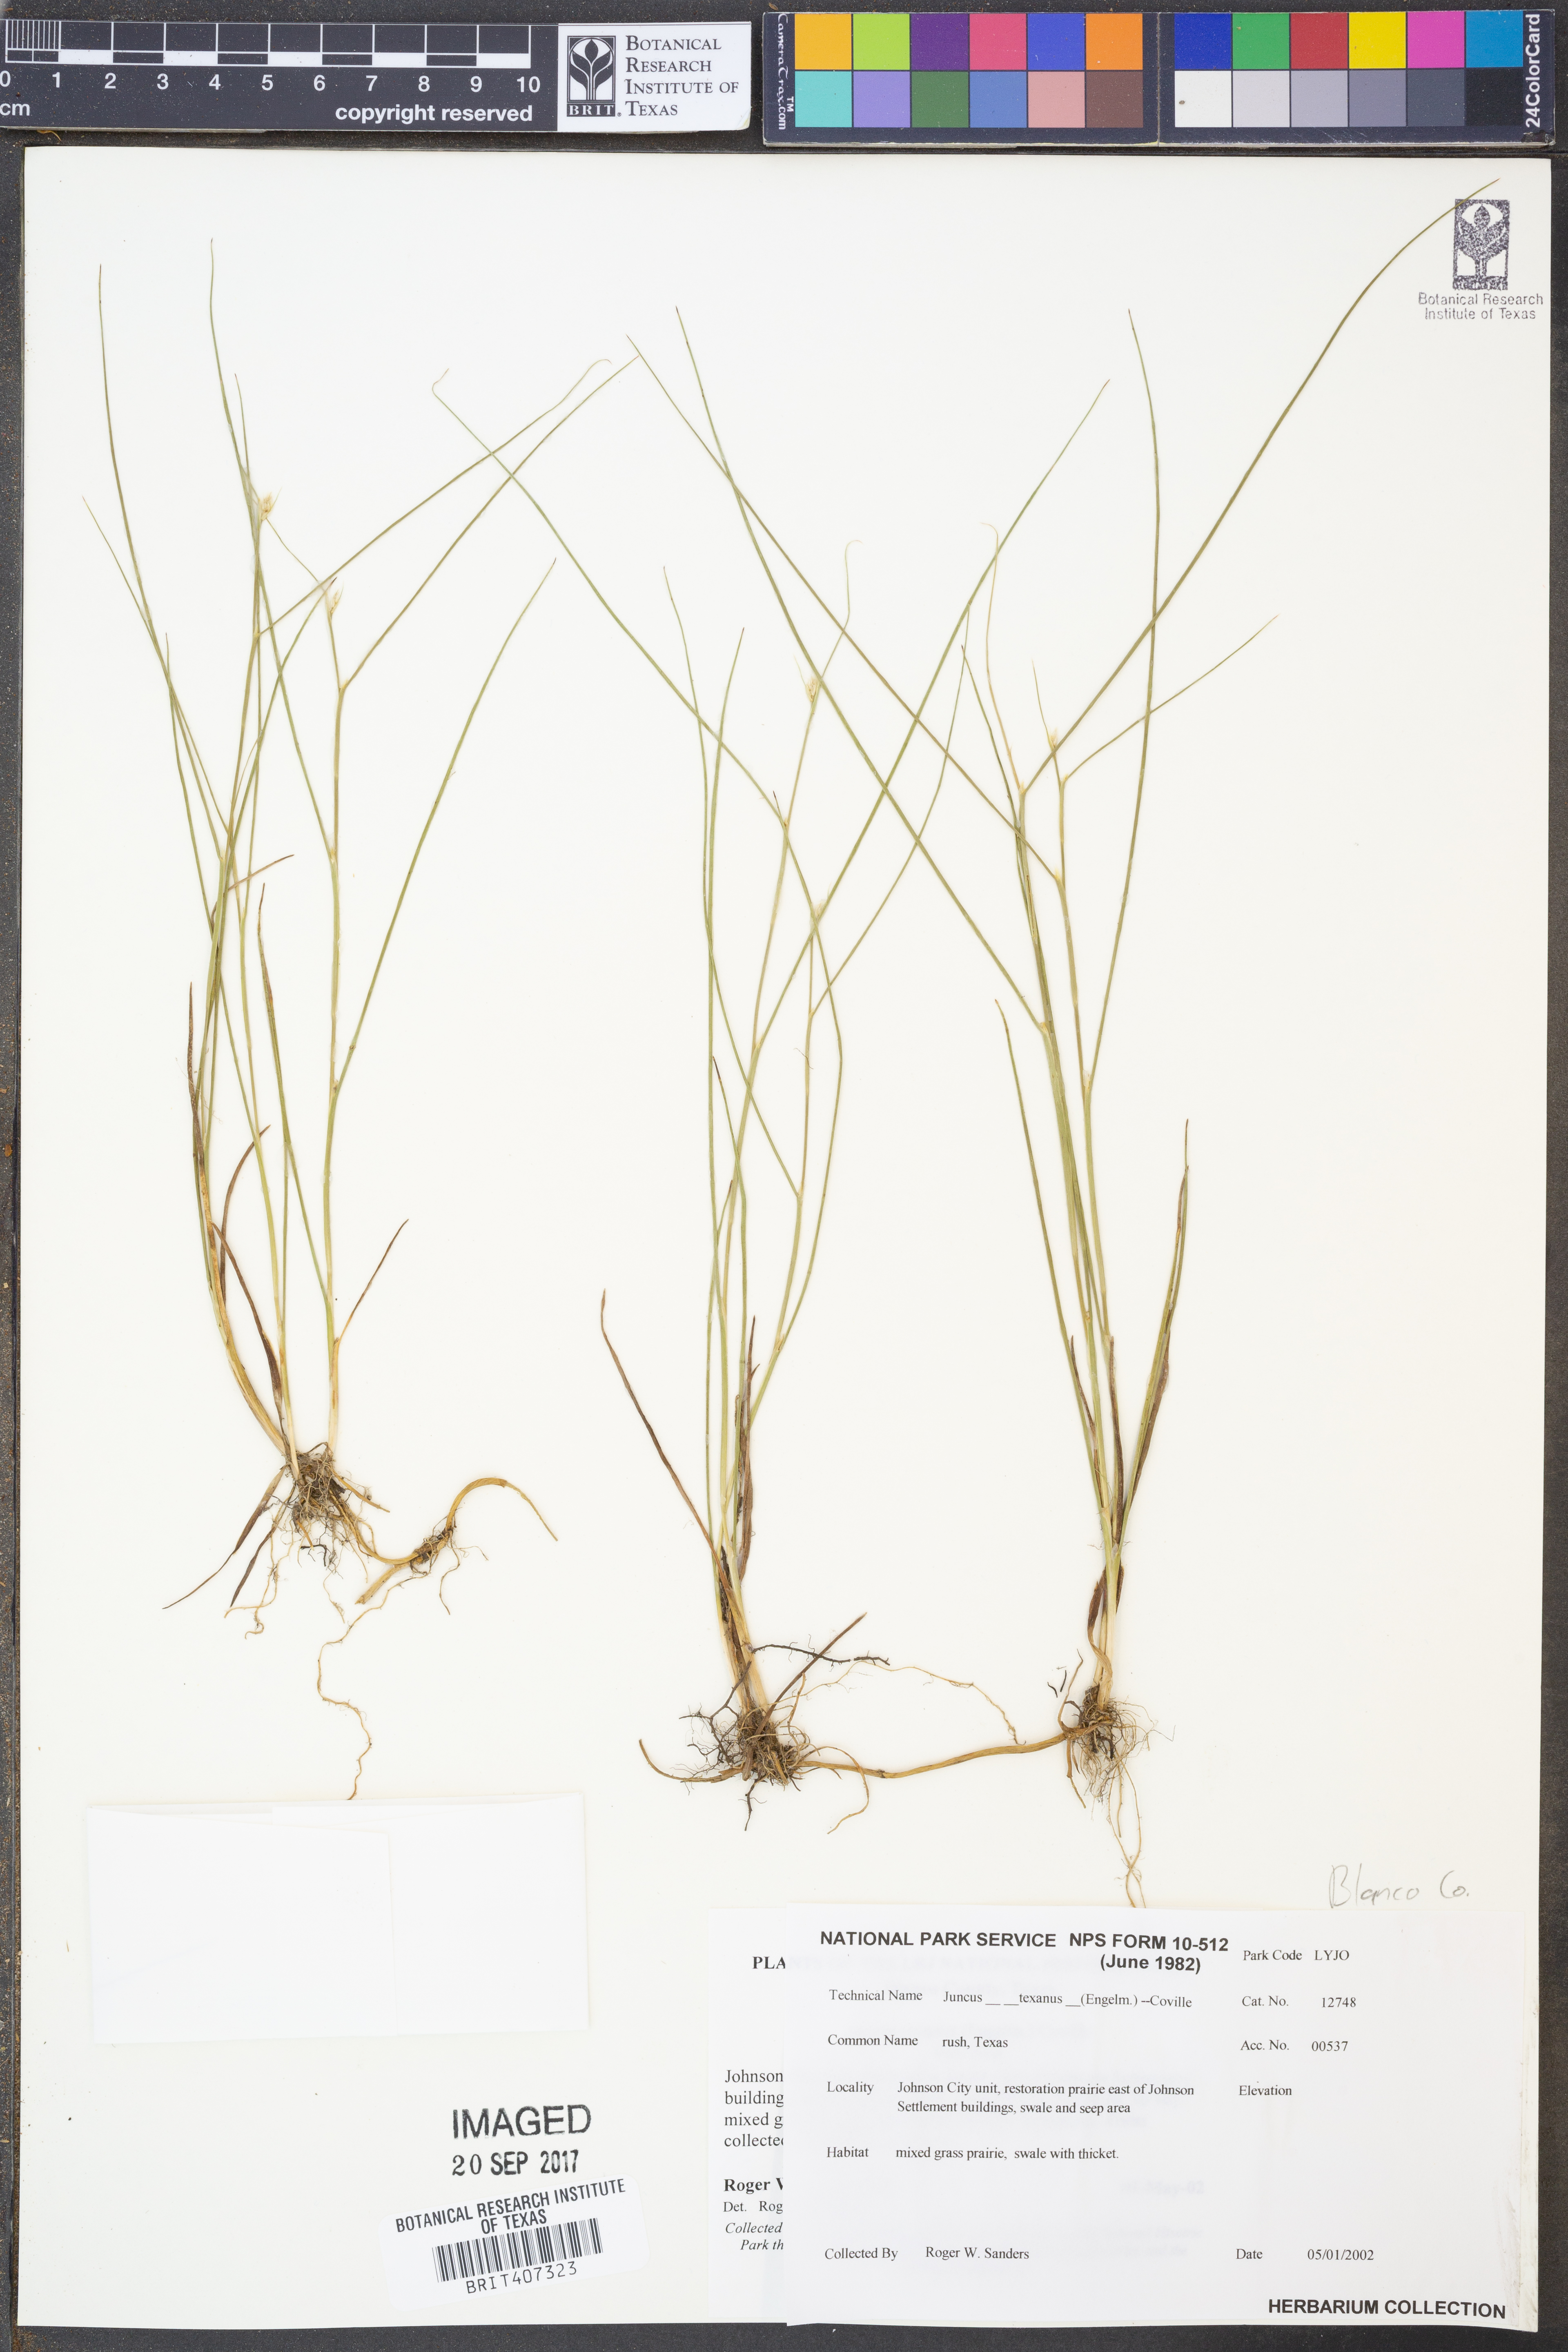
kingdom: Plantae
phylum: Tracheophyta
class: Liliopsida
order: Poales
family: Juncaceae
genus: Juncus
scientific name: Juncus texanus
